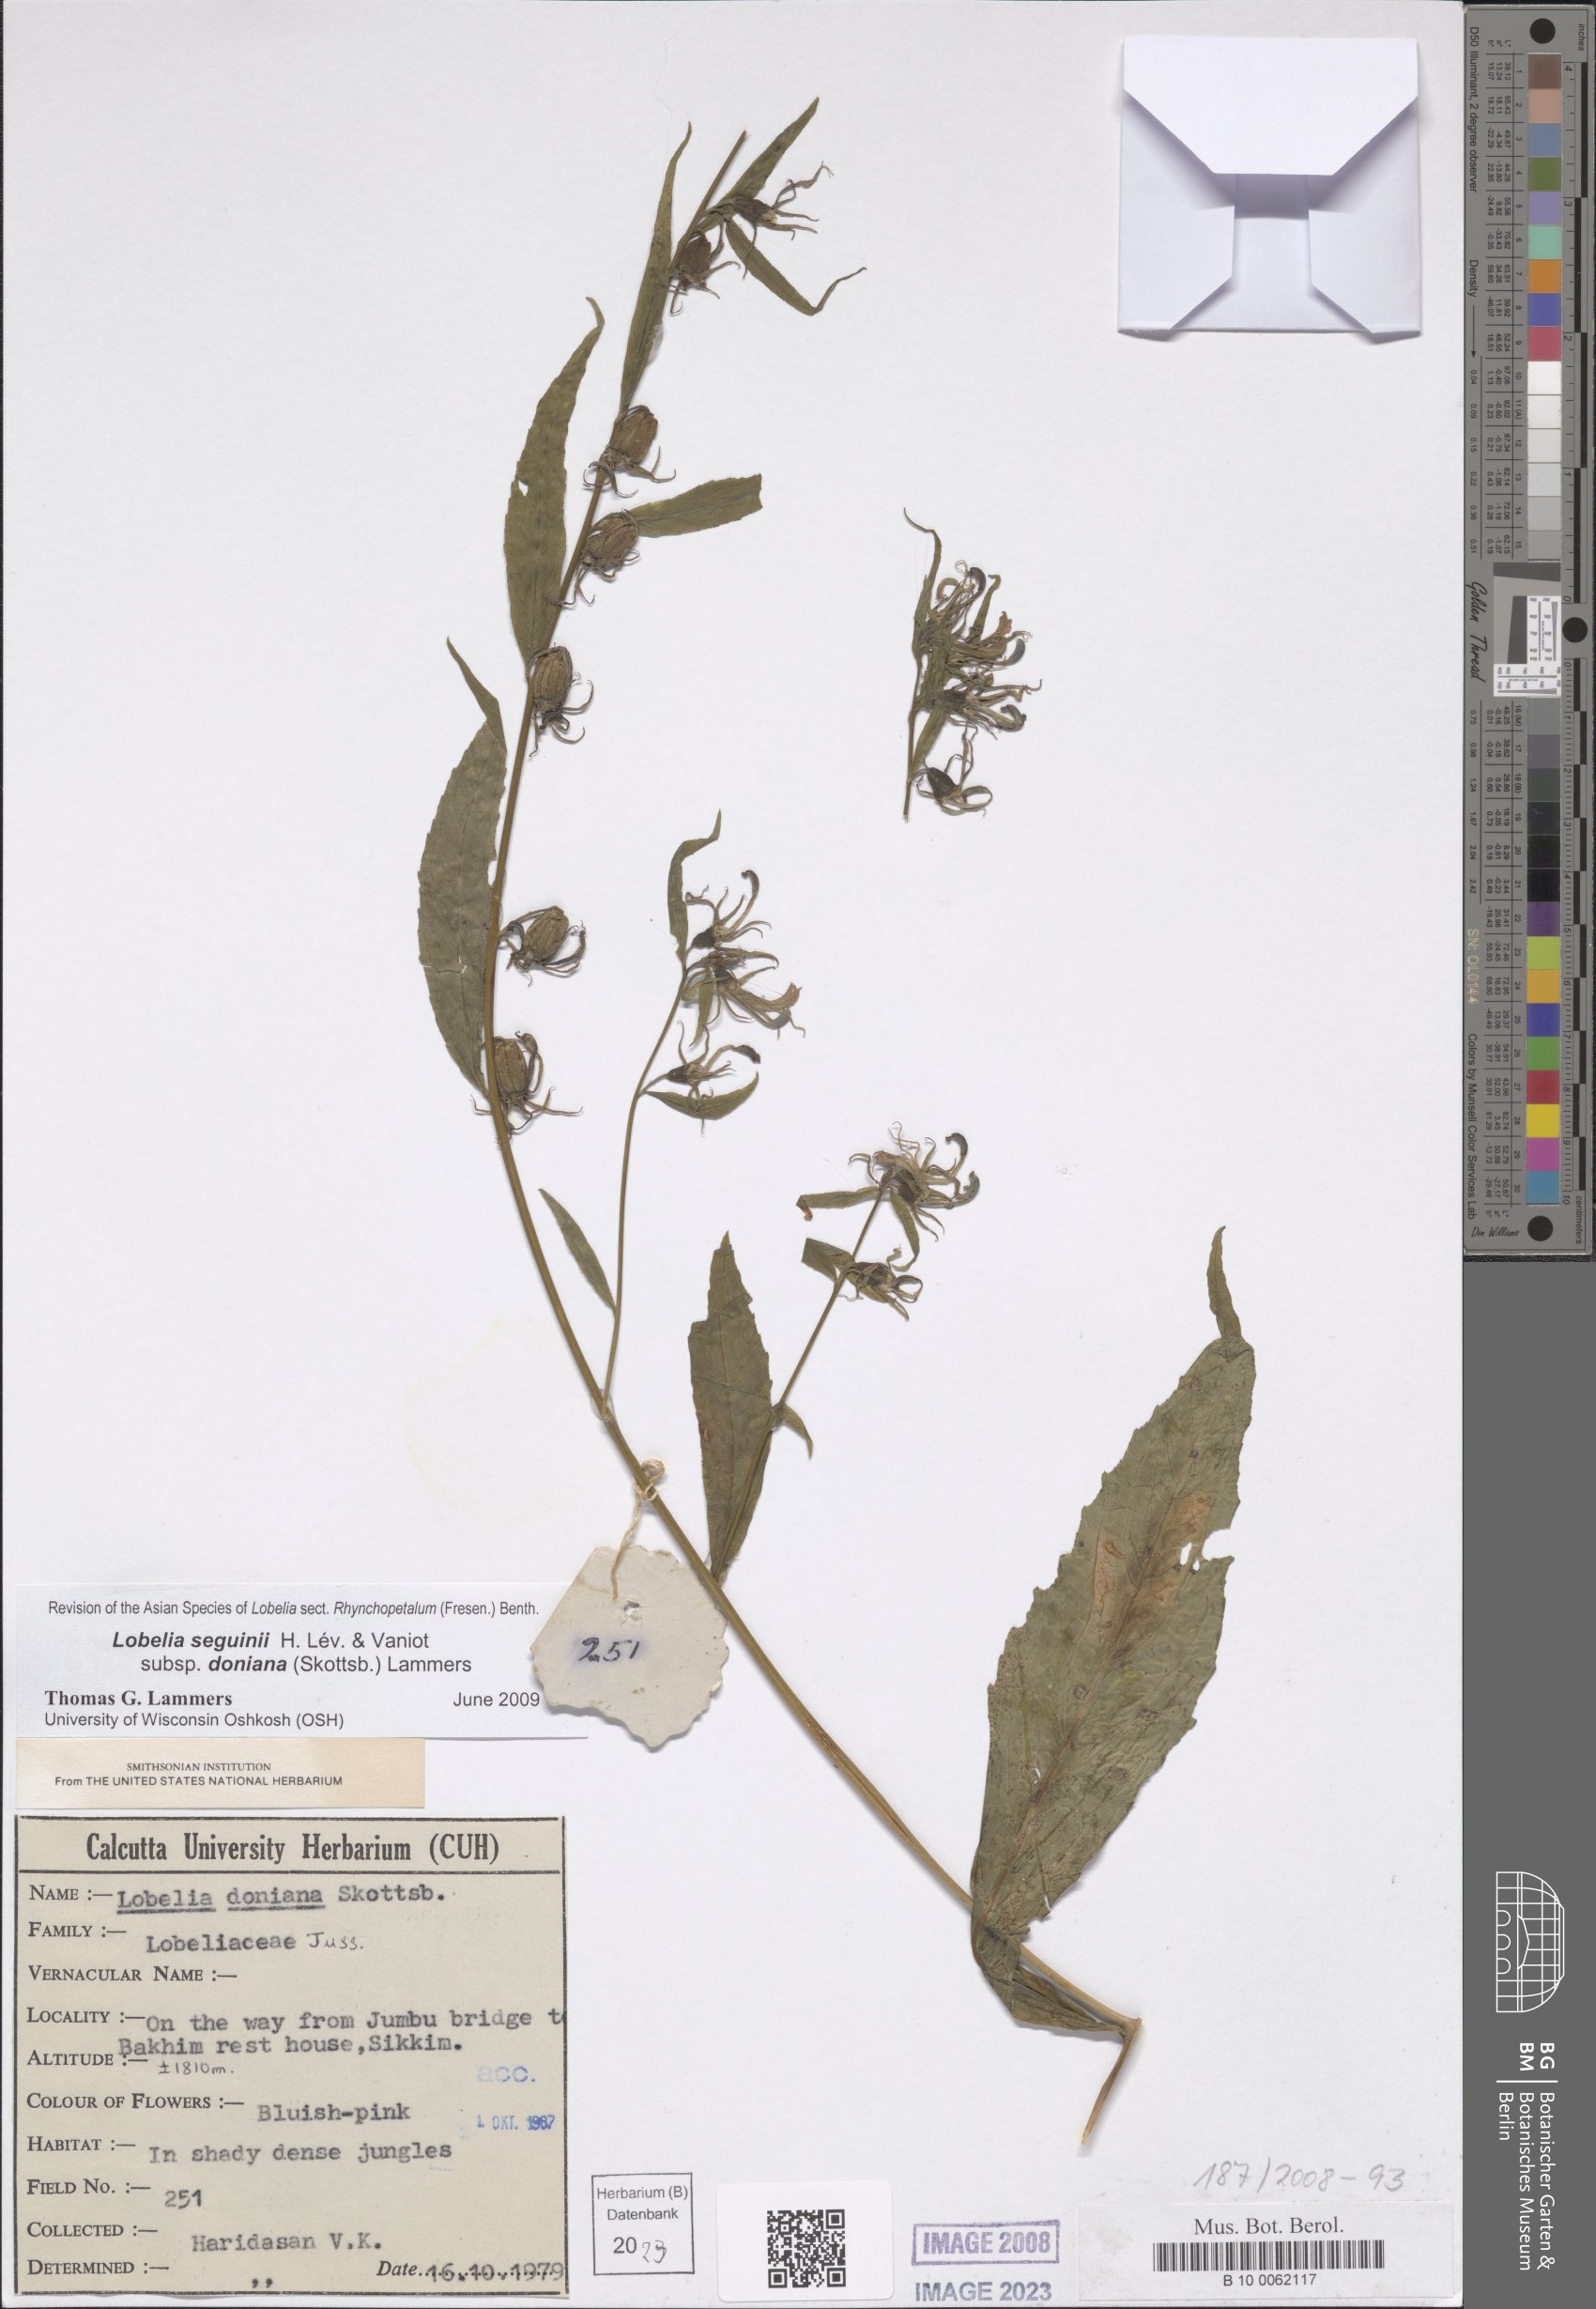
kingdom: Plantae
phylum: Tracheophyta
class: Magnoliopsida
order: Asterales
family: Campanulaceae
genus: Lobelia
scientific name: Lobelia nicotianifolia
